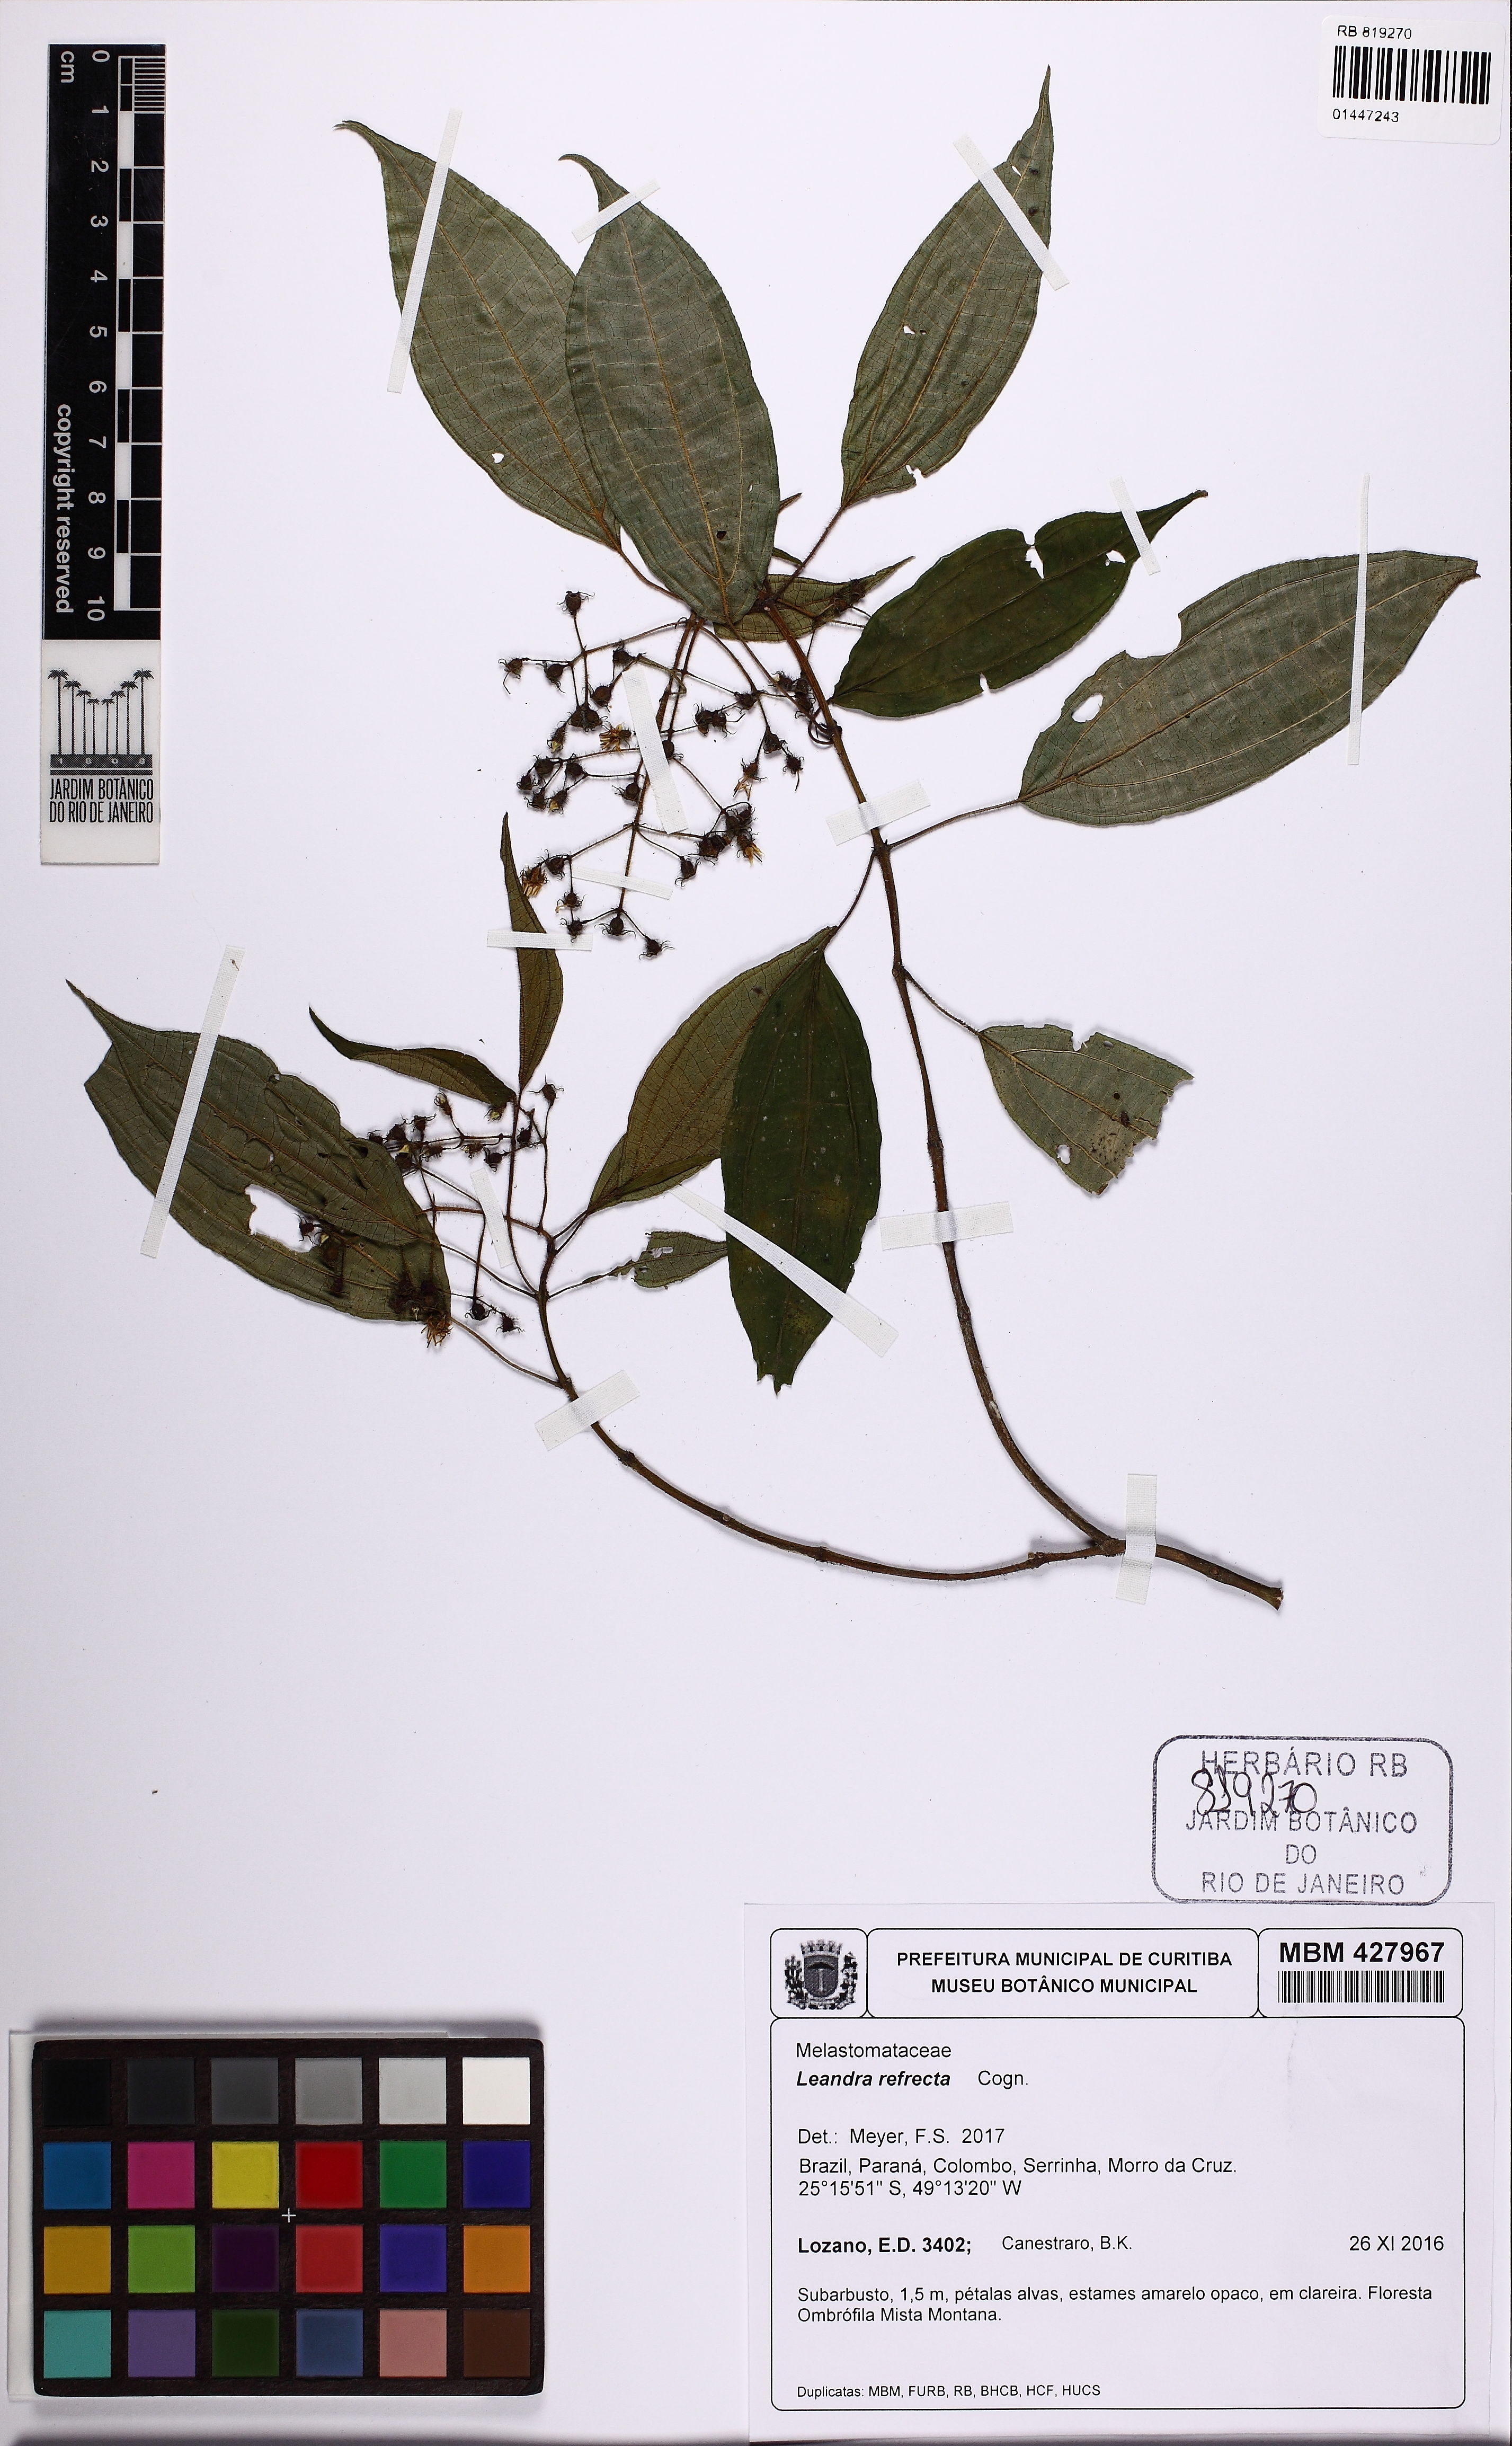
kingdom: Plantae
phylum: Tracheophyta
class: Magnoliopsida
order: Myrtales
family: Melastomataceae
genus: Miconia
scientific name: Miconia refracta
